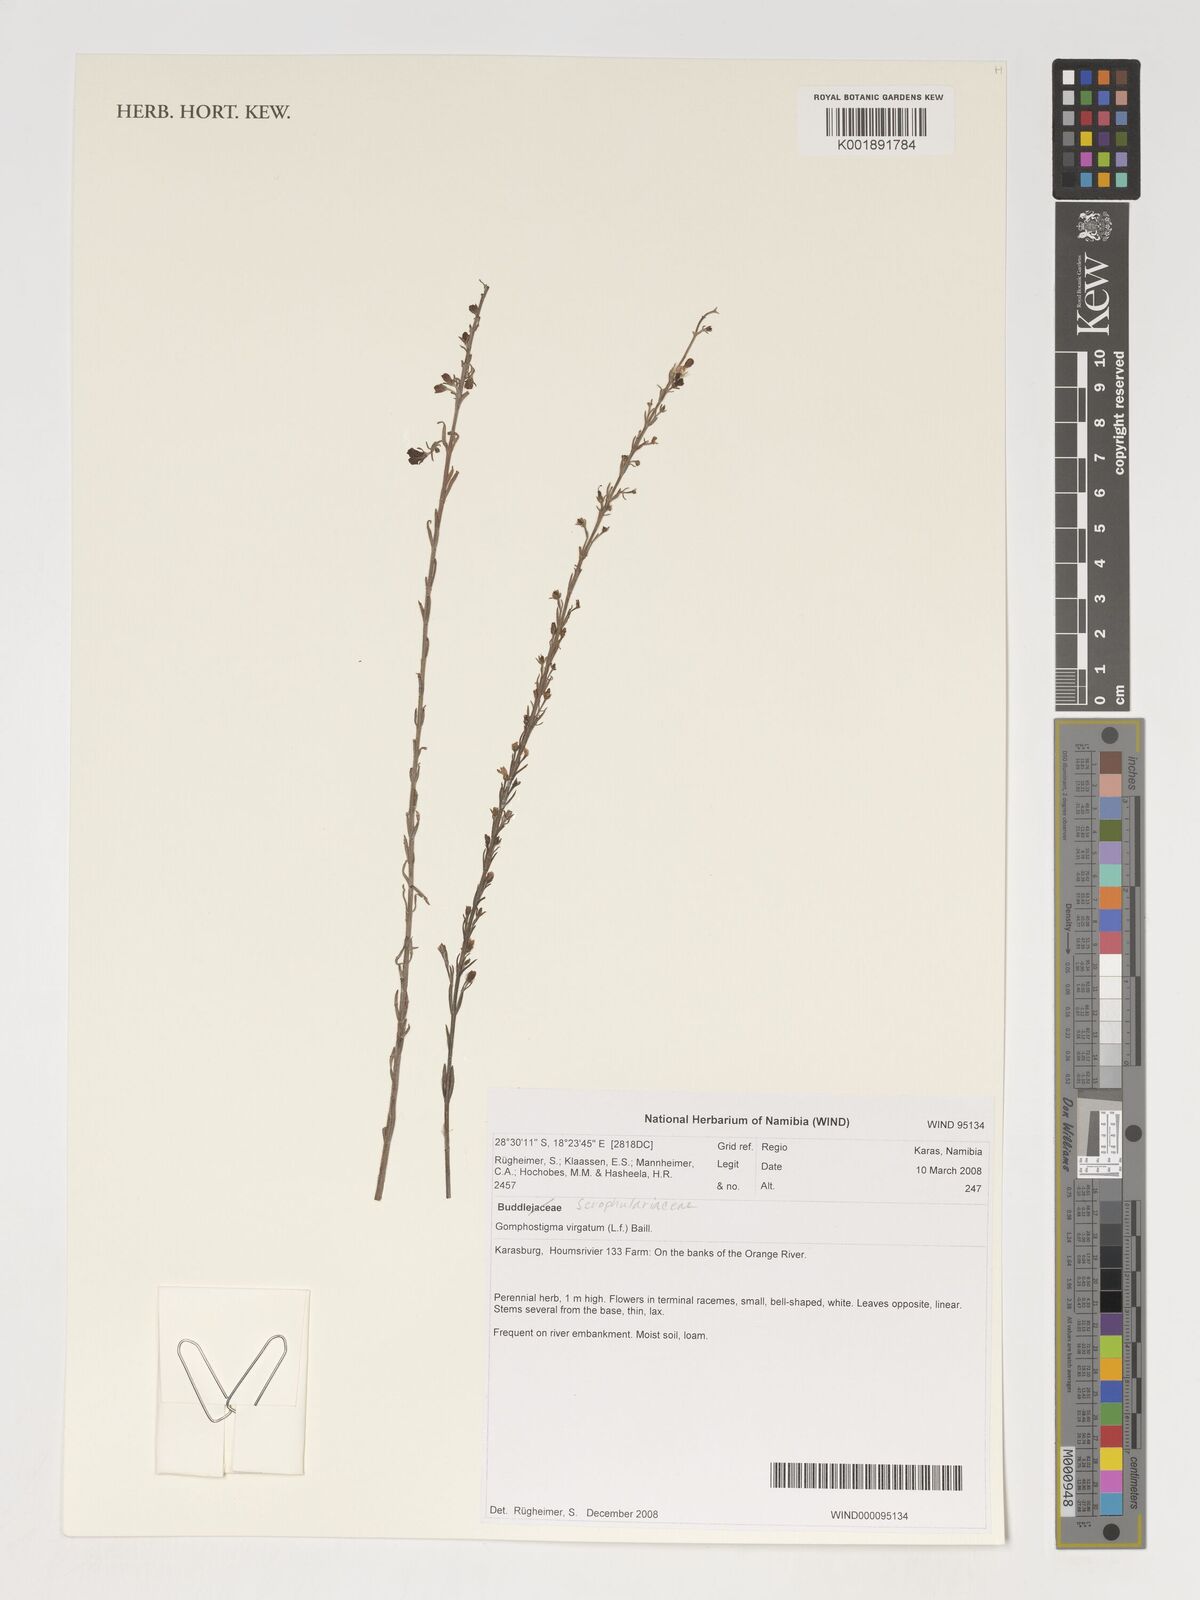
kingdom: Plantae
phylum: Tracheophyta
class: Magnoliopsida
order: Lamiales
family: Scrophulariaceae
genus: Buddleja
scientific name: Buddleja virgata
